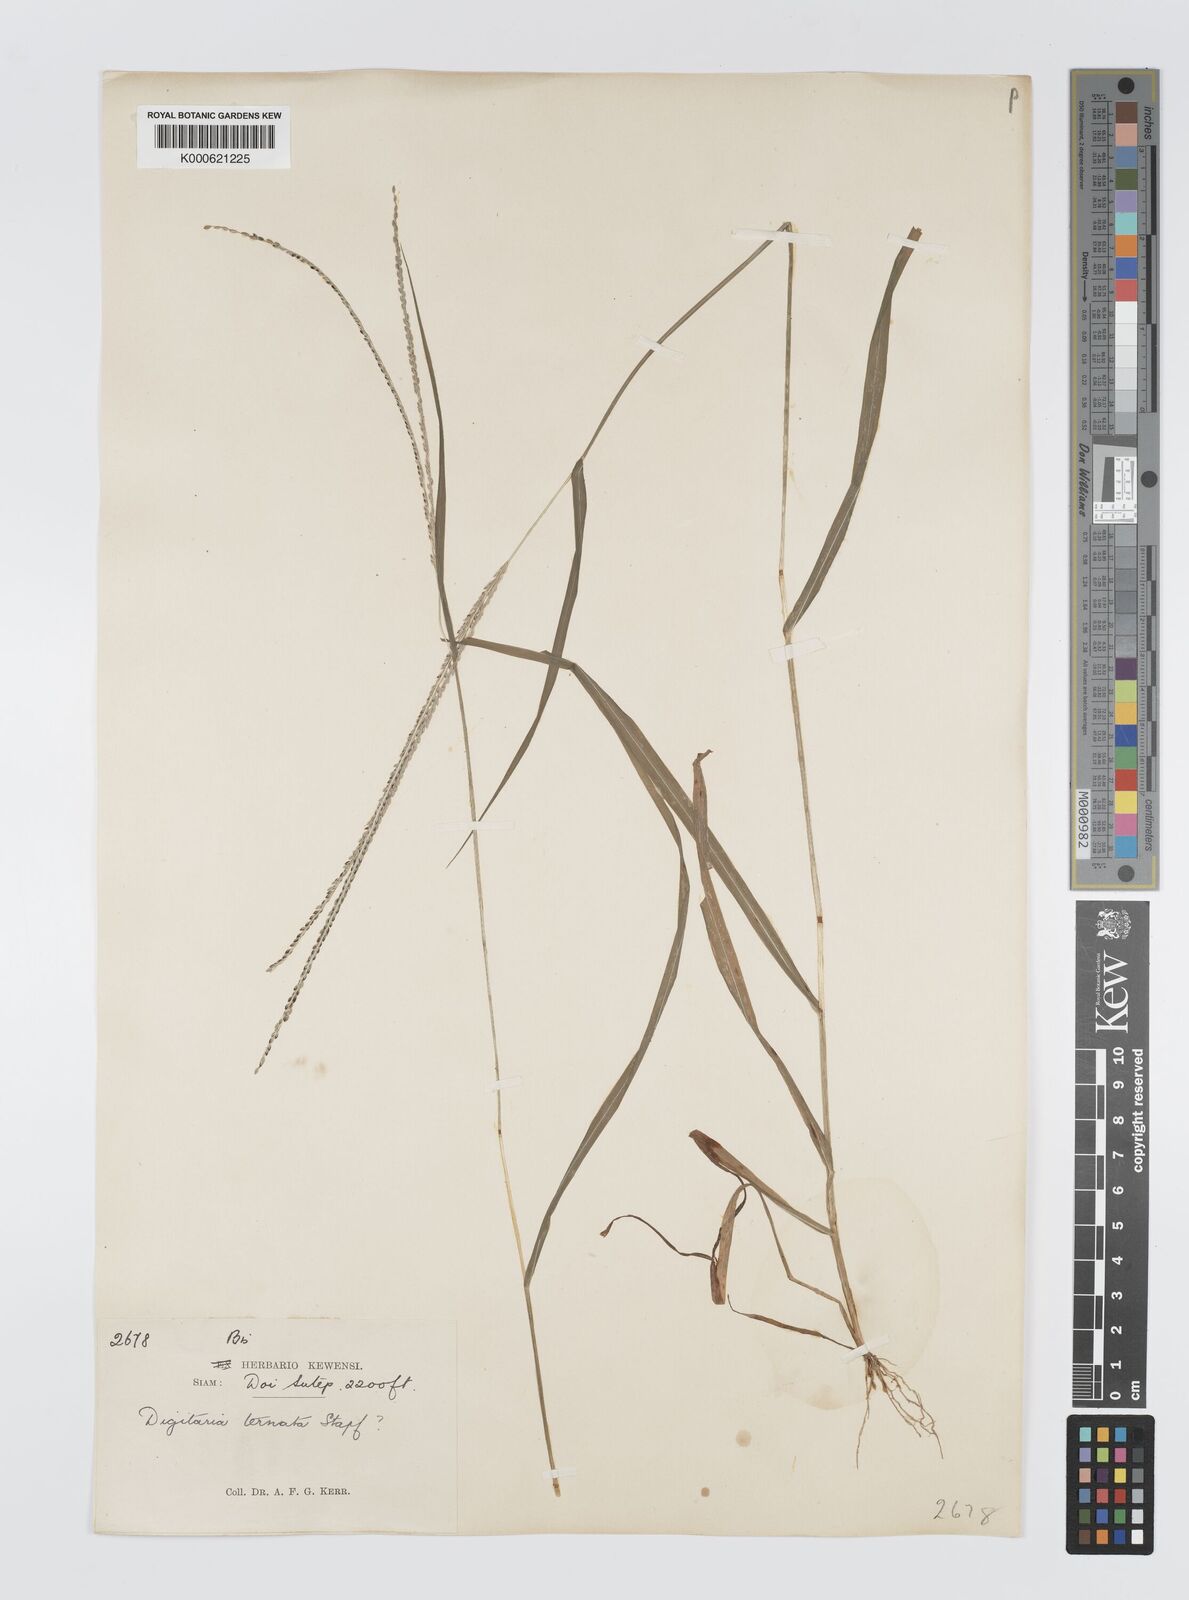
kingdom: Plantae
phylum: Tracheophyta
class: Liliopsida
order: Poales
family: Poaceae
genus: Digitaria
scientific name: Digitaria ternata
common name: Blackseed crabgrass
